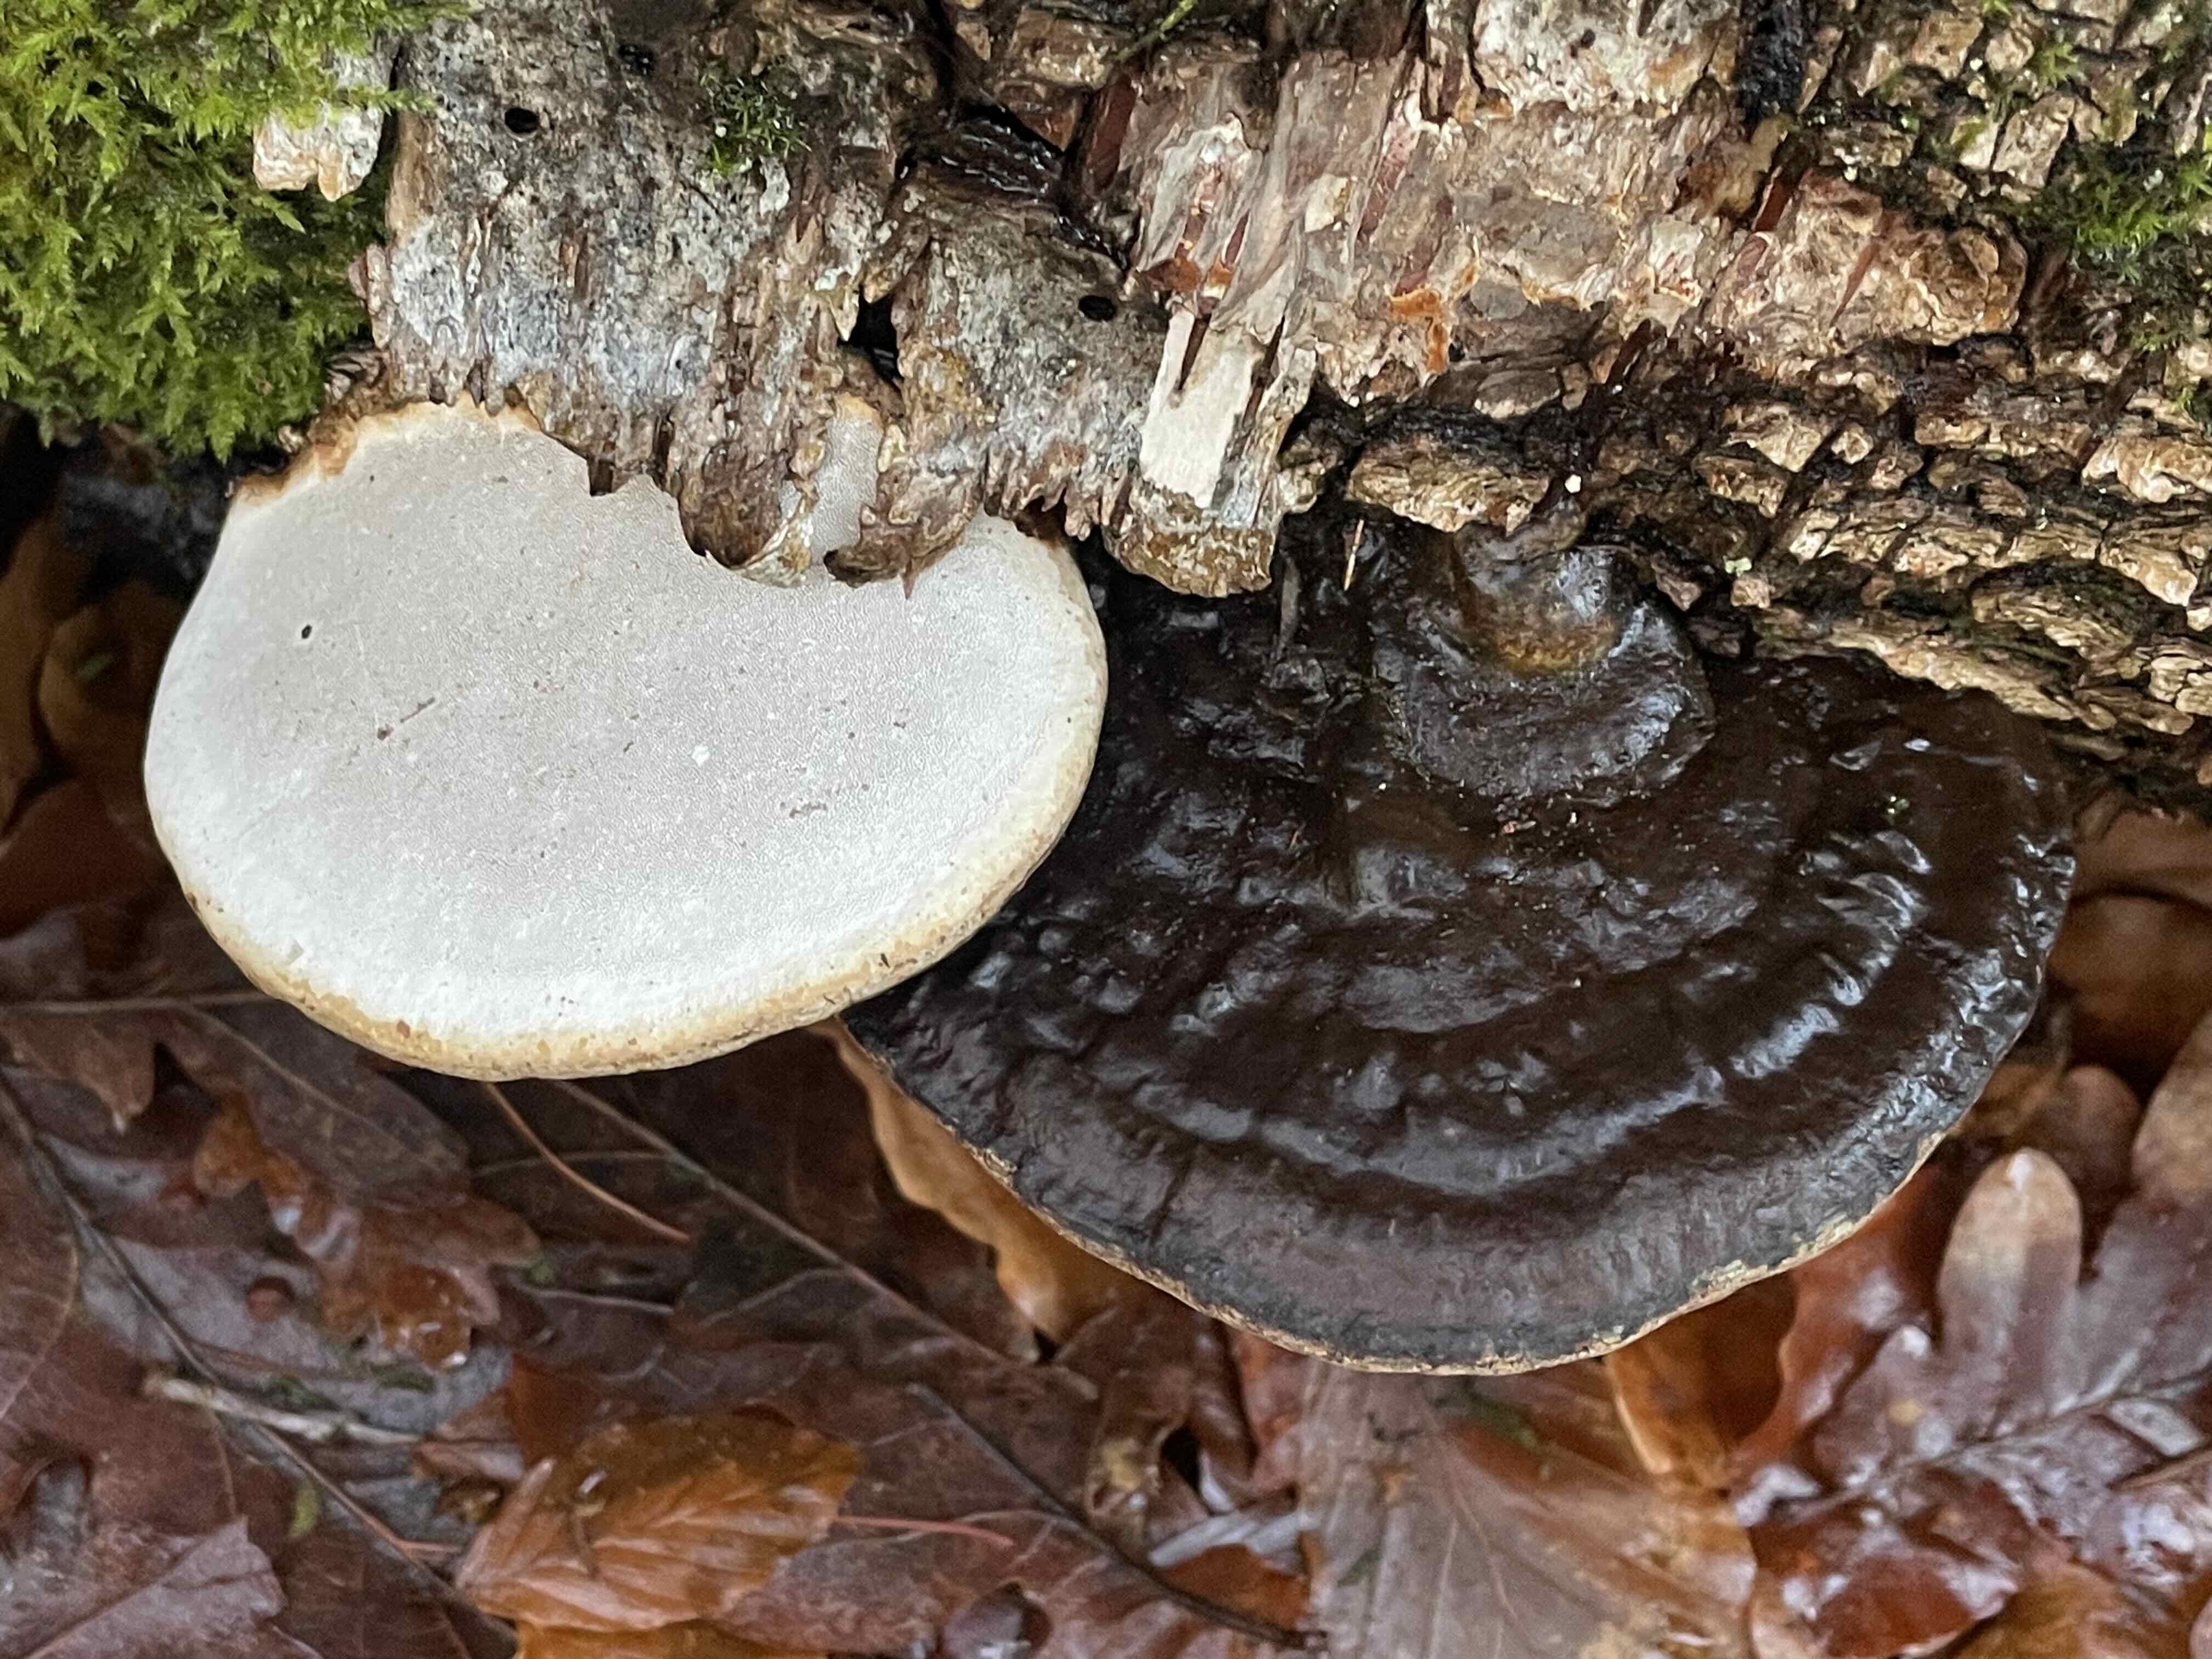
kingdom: Fungi
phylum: Basidiomycota
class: Agaricomycetes
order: Polyporales
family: Polyporaceae
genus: Ganoderma
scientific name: Ganoderma applanatum
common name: flad lakporesvamp
